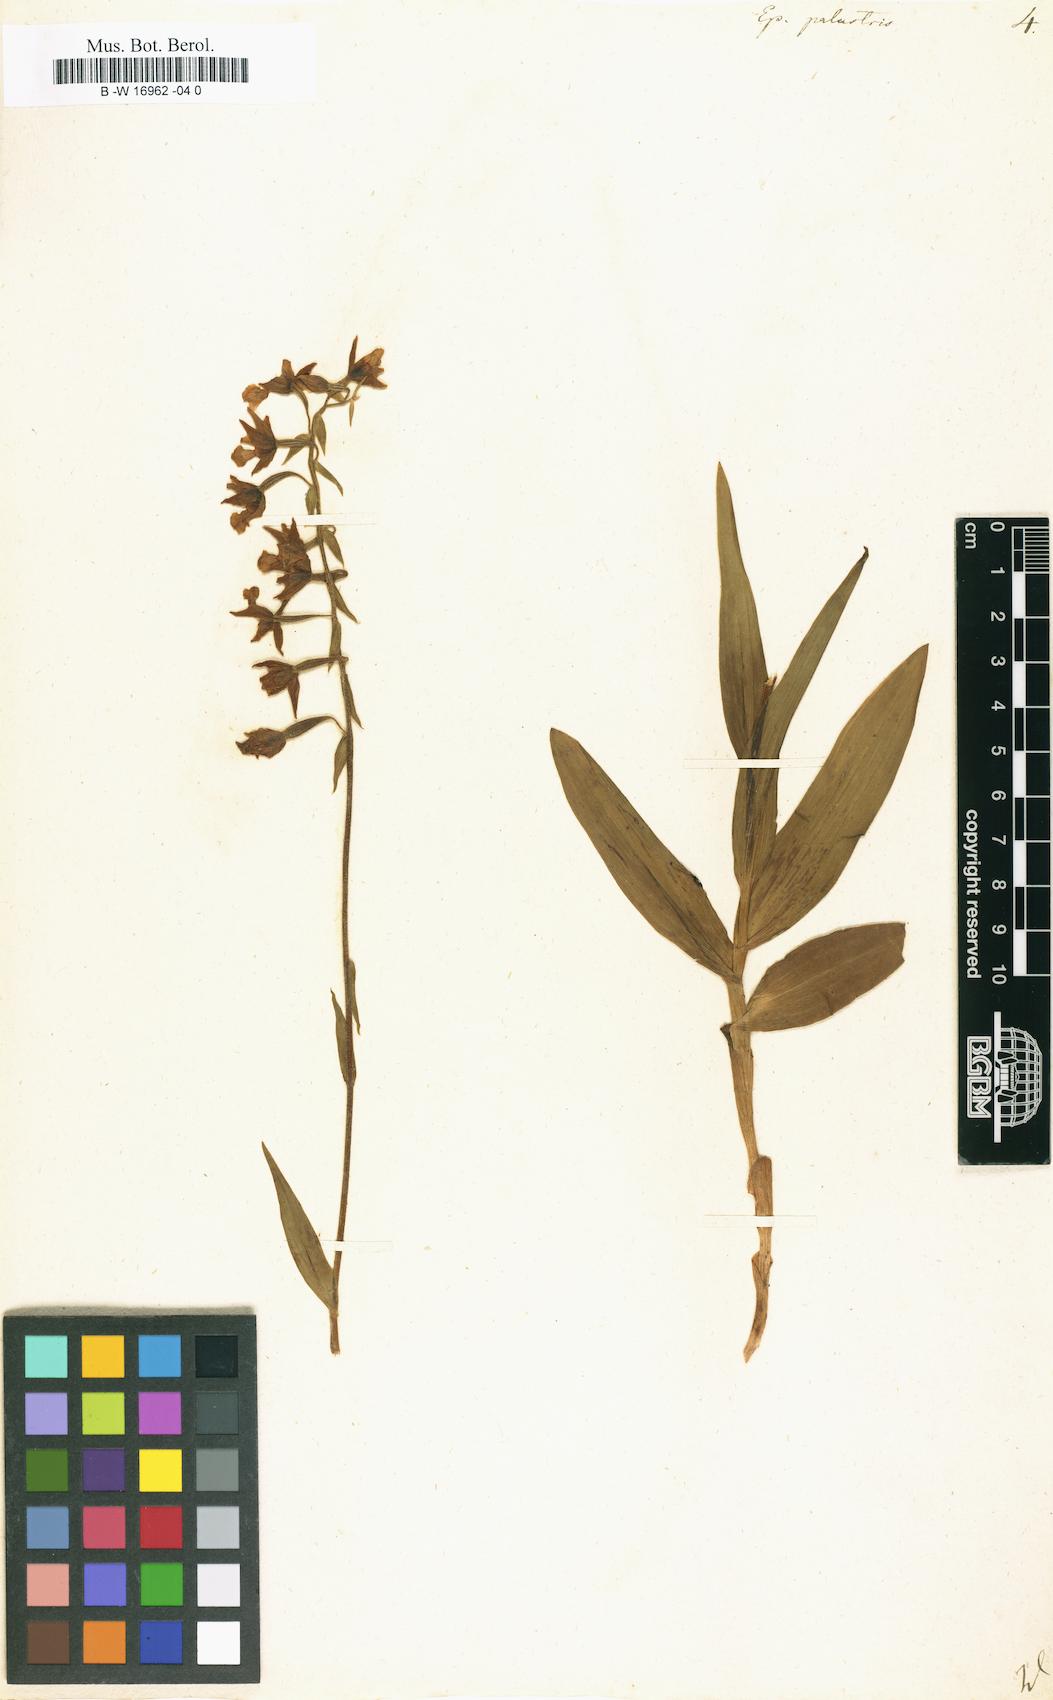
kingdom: Plantae
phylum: Tracheophyta
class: Liliopsida
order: Asparagales
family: Orchidaceae
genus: Epipactis
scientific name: Epipactis palustris
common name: Marsh helleborine
